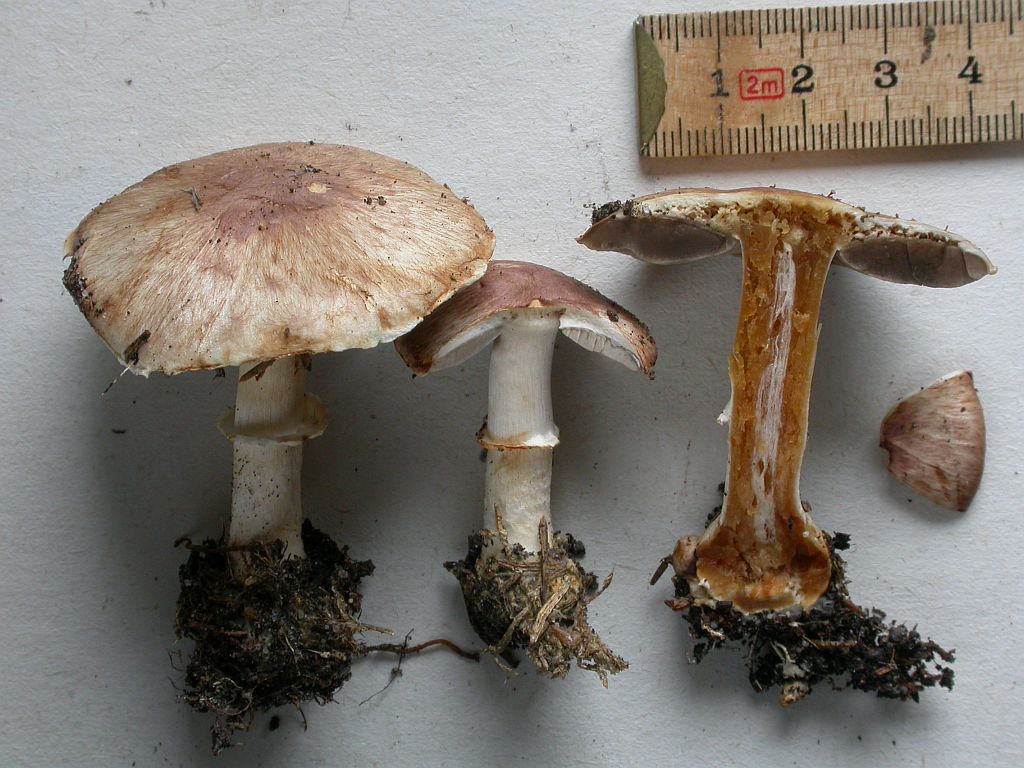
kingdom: Fungi
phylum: Basidiomycota
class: Agaricomycetes
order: Agaricales
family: Agaricaceae
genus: Agaricus
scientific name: Agaricus brunneolus
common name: purpur-champignon
